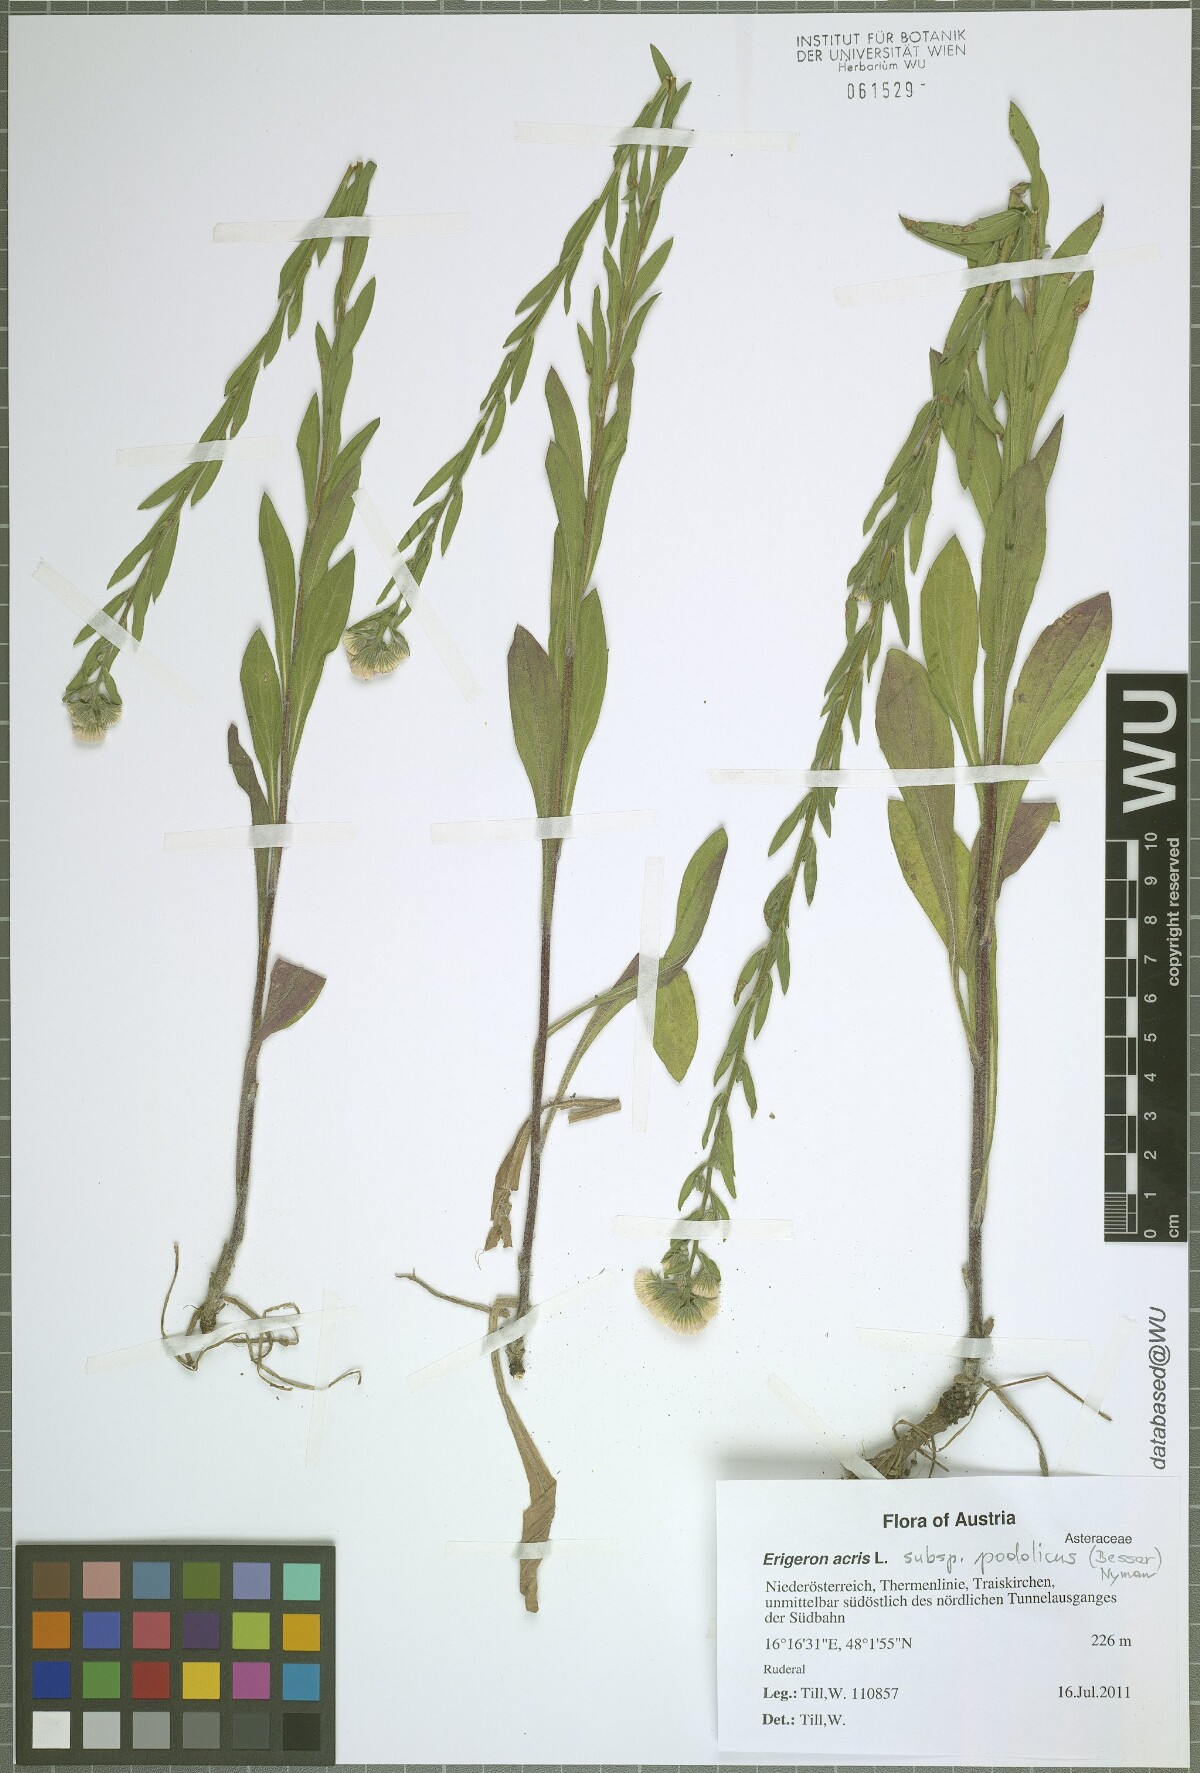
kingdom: Plantae
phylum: Tracheophyta
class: Magnoliopsida
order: Asterales
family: Asteraceae
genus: Erigeron
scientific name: Erigeron podolicus
